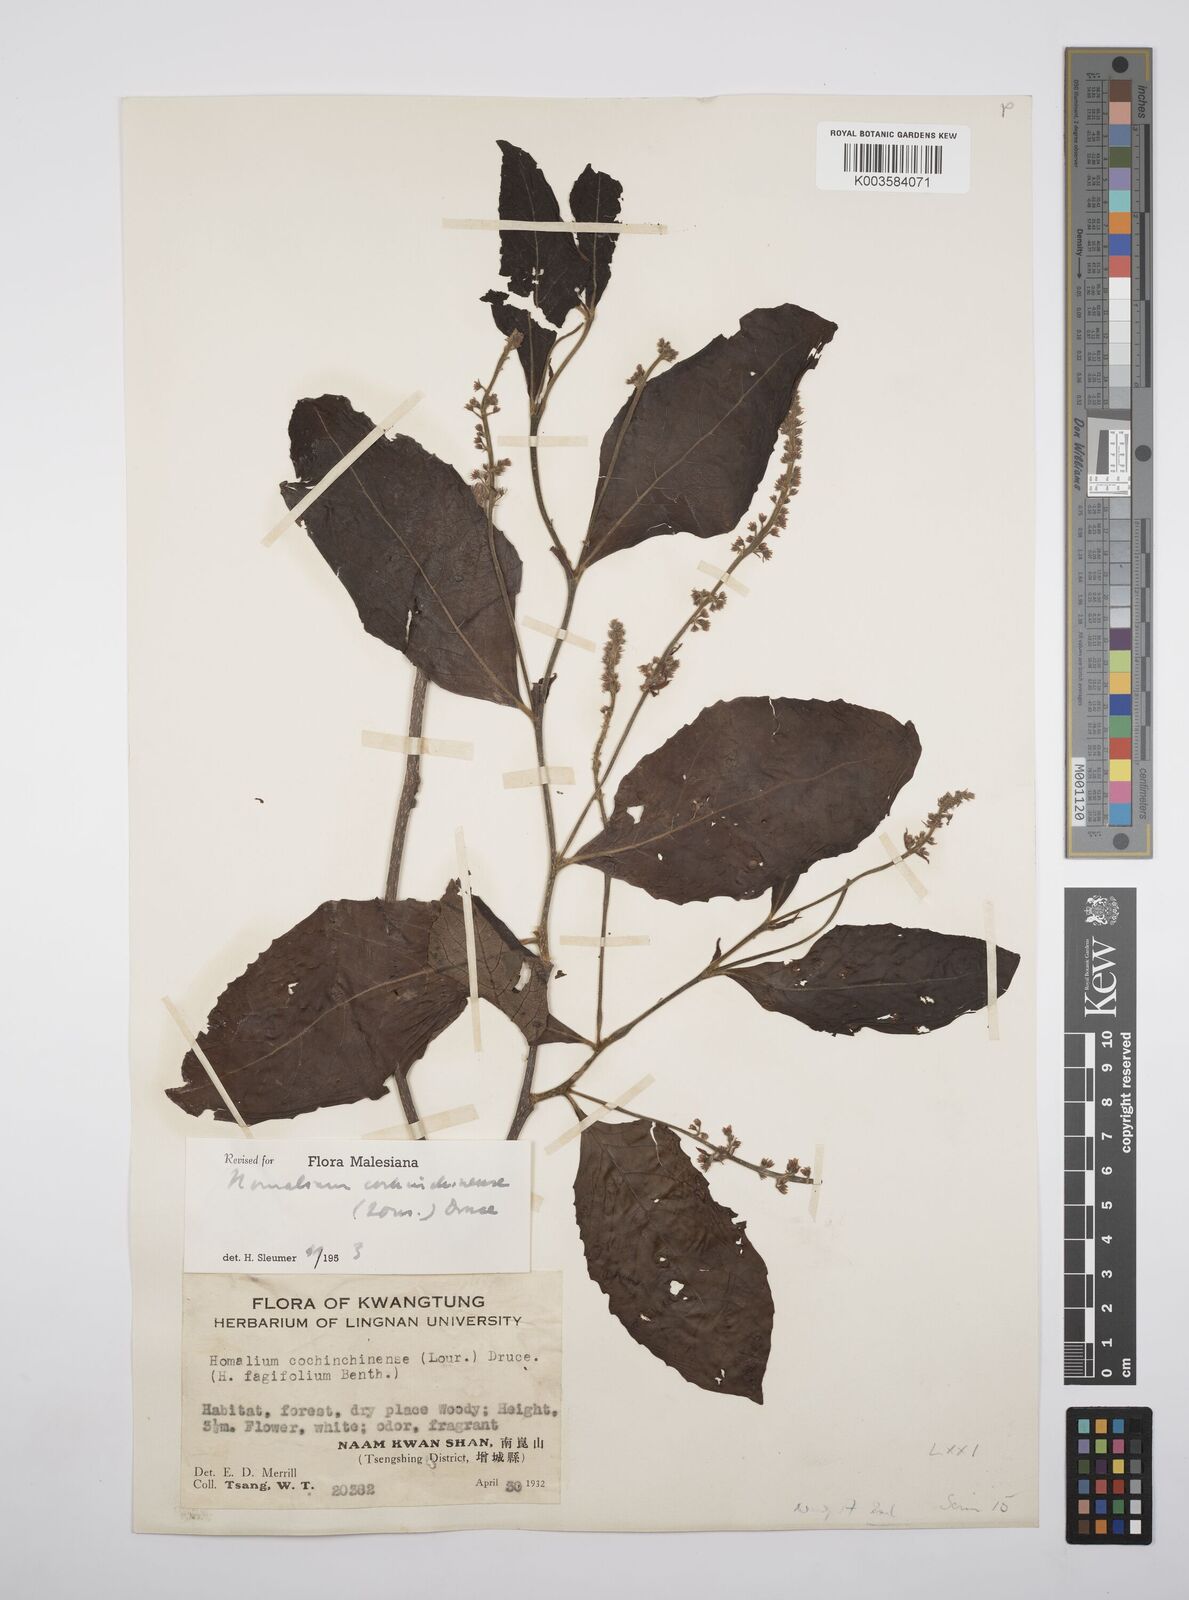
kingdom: Plantae
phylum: Tracheophyta
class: Magnoliopsida
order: Malpighiales
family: Salicaceae
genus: Homalium
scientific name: Homalium cochinchinensis
